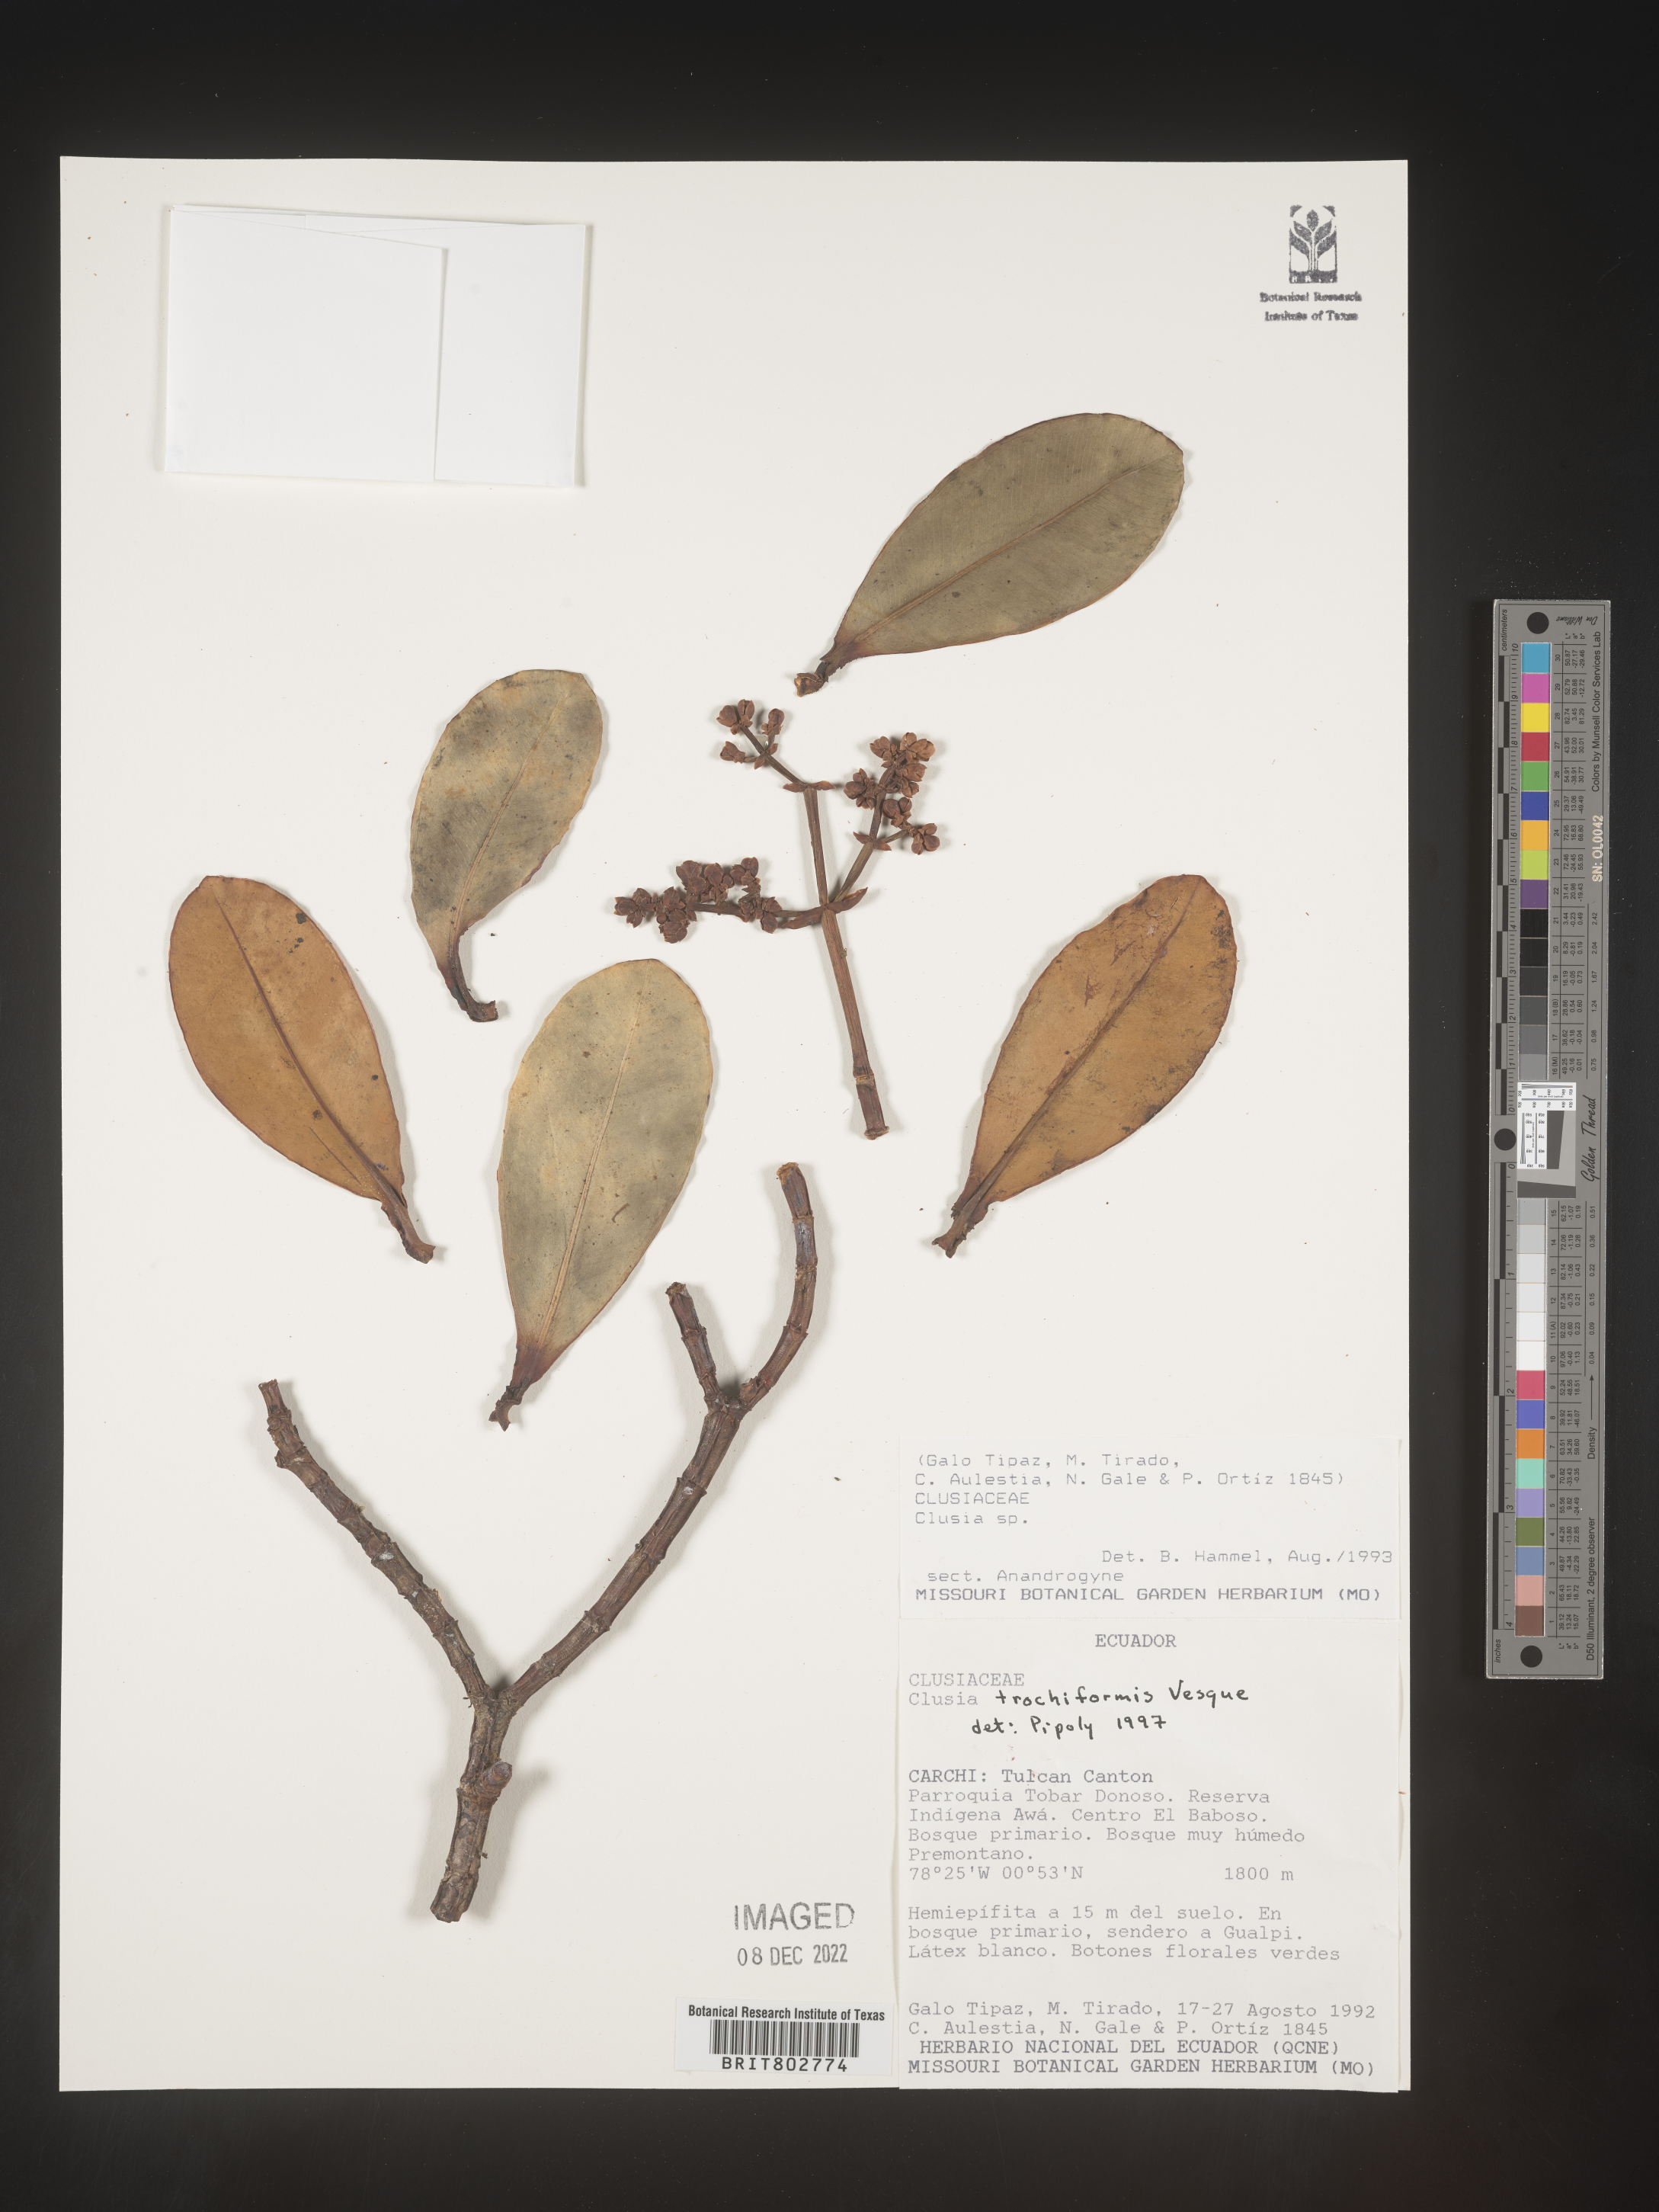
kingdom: Plantae
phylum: Tracheophyta
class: Magnoliopsida
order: Malpighiales
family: Clusiaceae
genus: Clusia
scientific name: Clusia trochiformis
